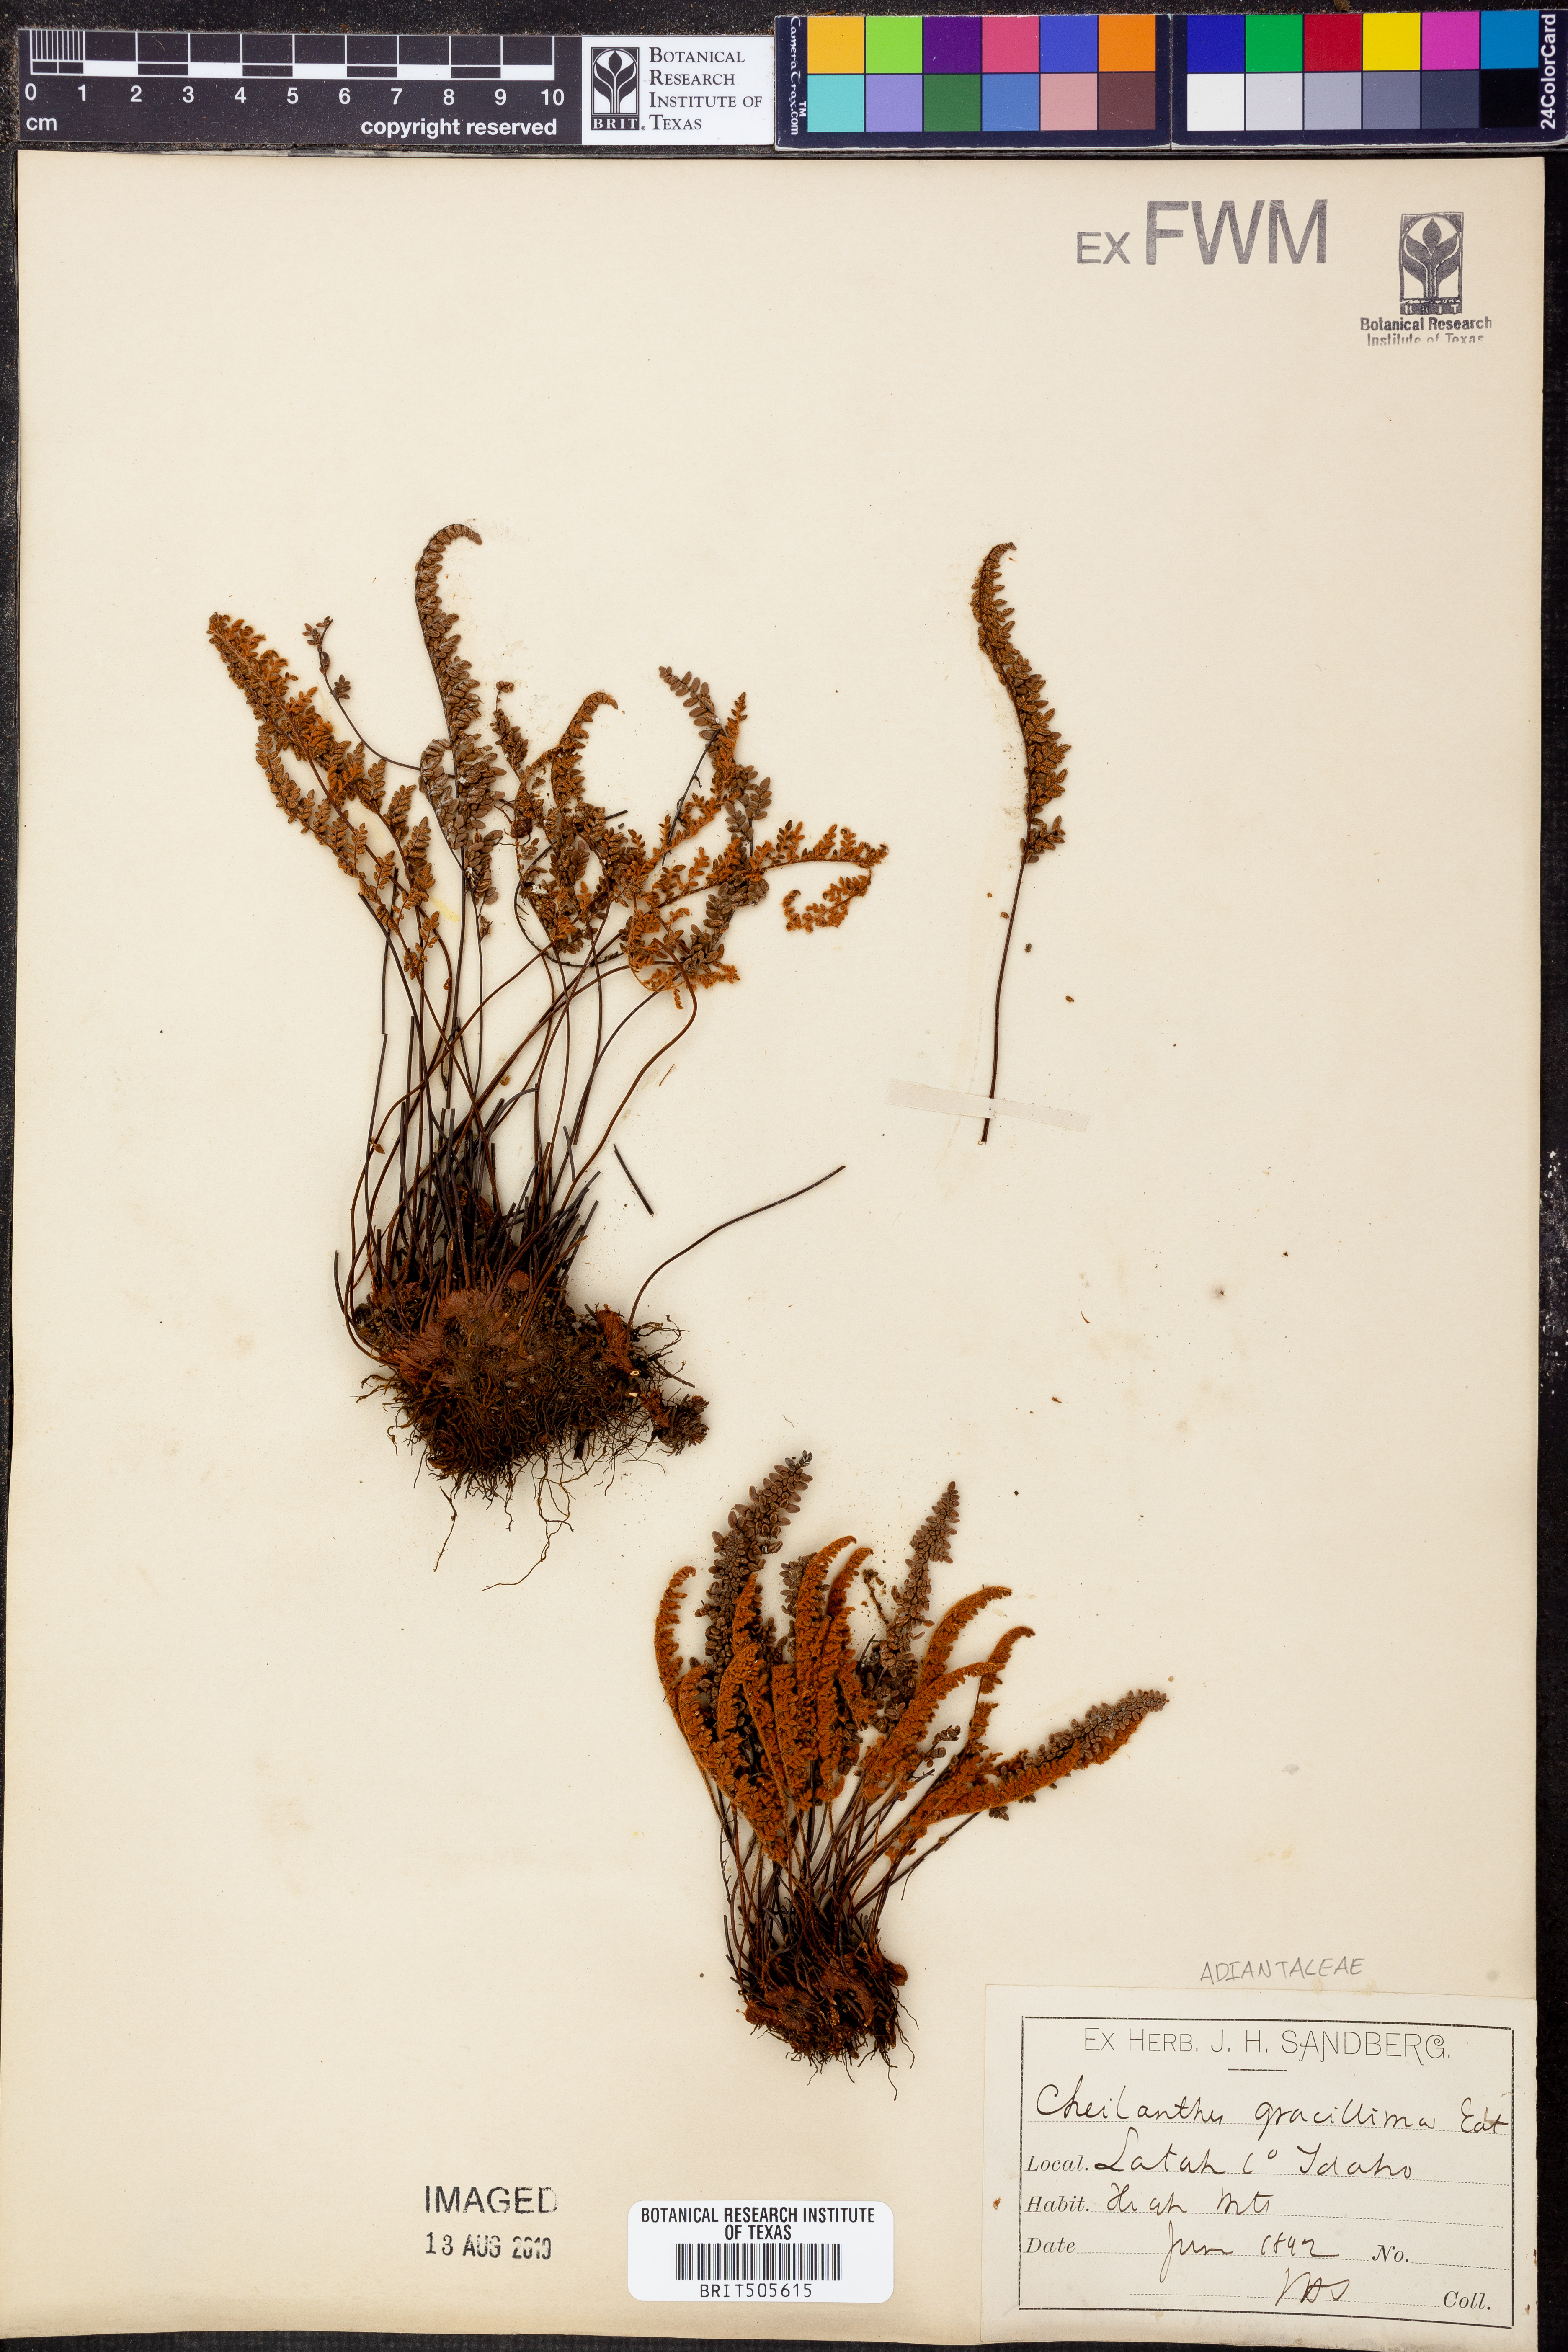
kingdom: Plantae
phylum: Tracheophyta
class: Polypodiopsida
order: Polypodiales
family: Pteridaceae
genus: Myriopteris
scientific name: Myriopteris gracillima
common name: Lace fern
